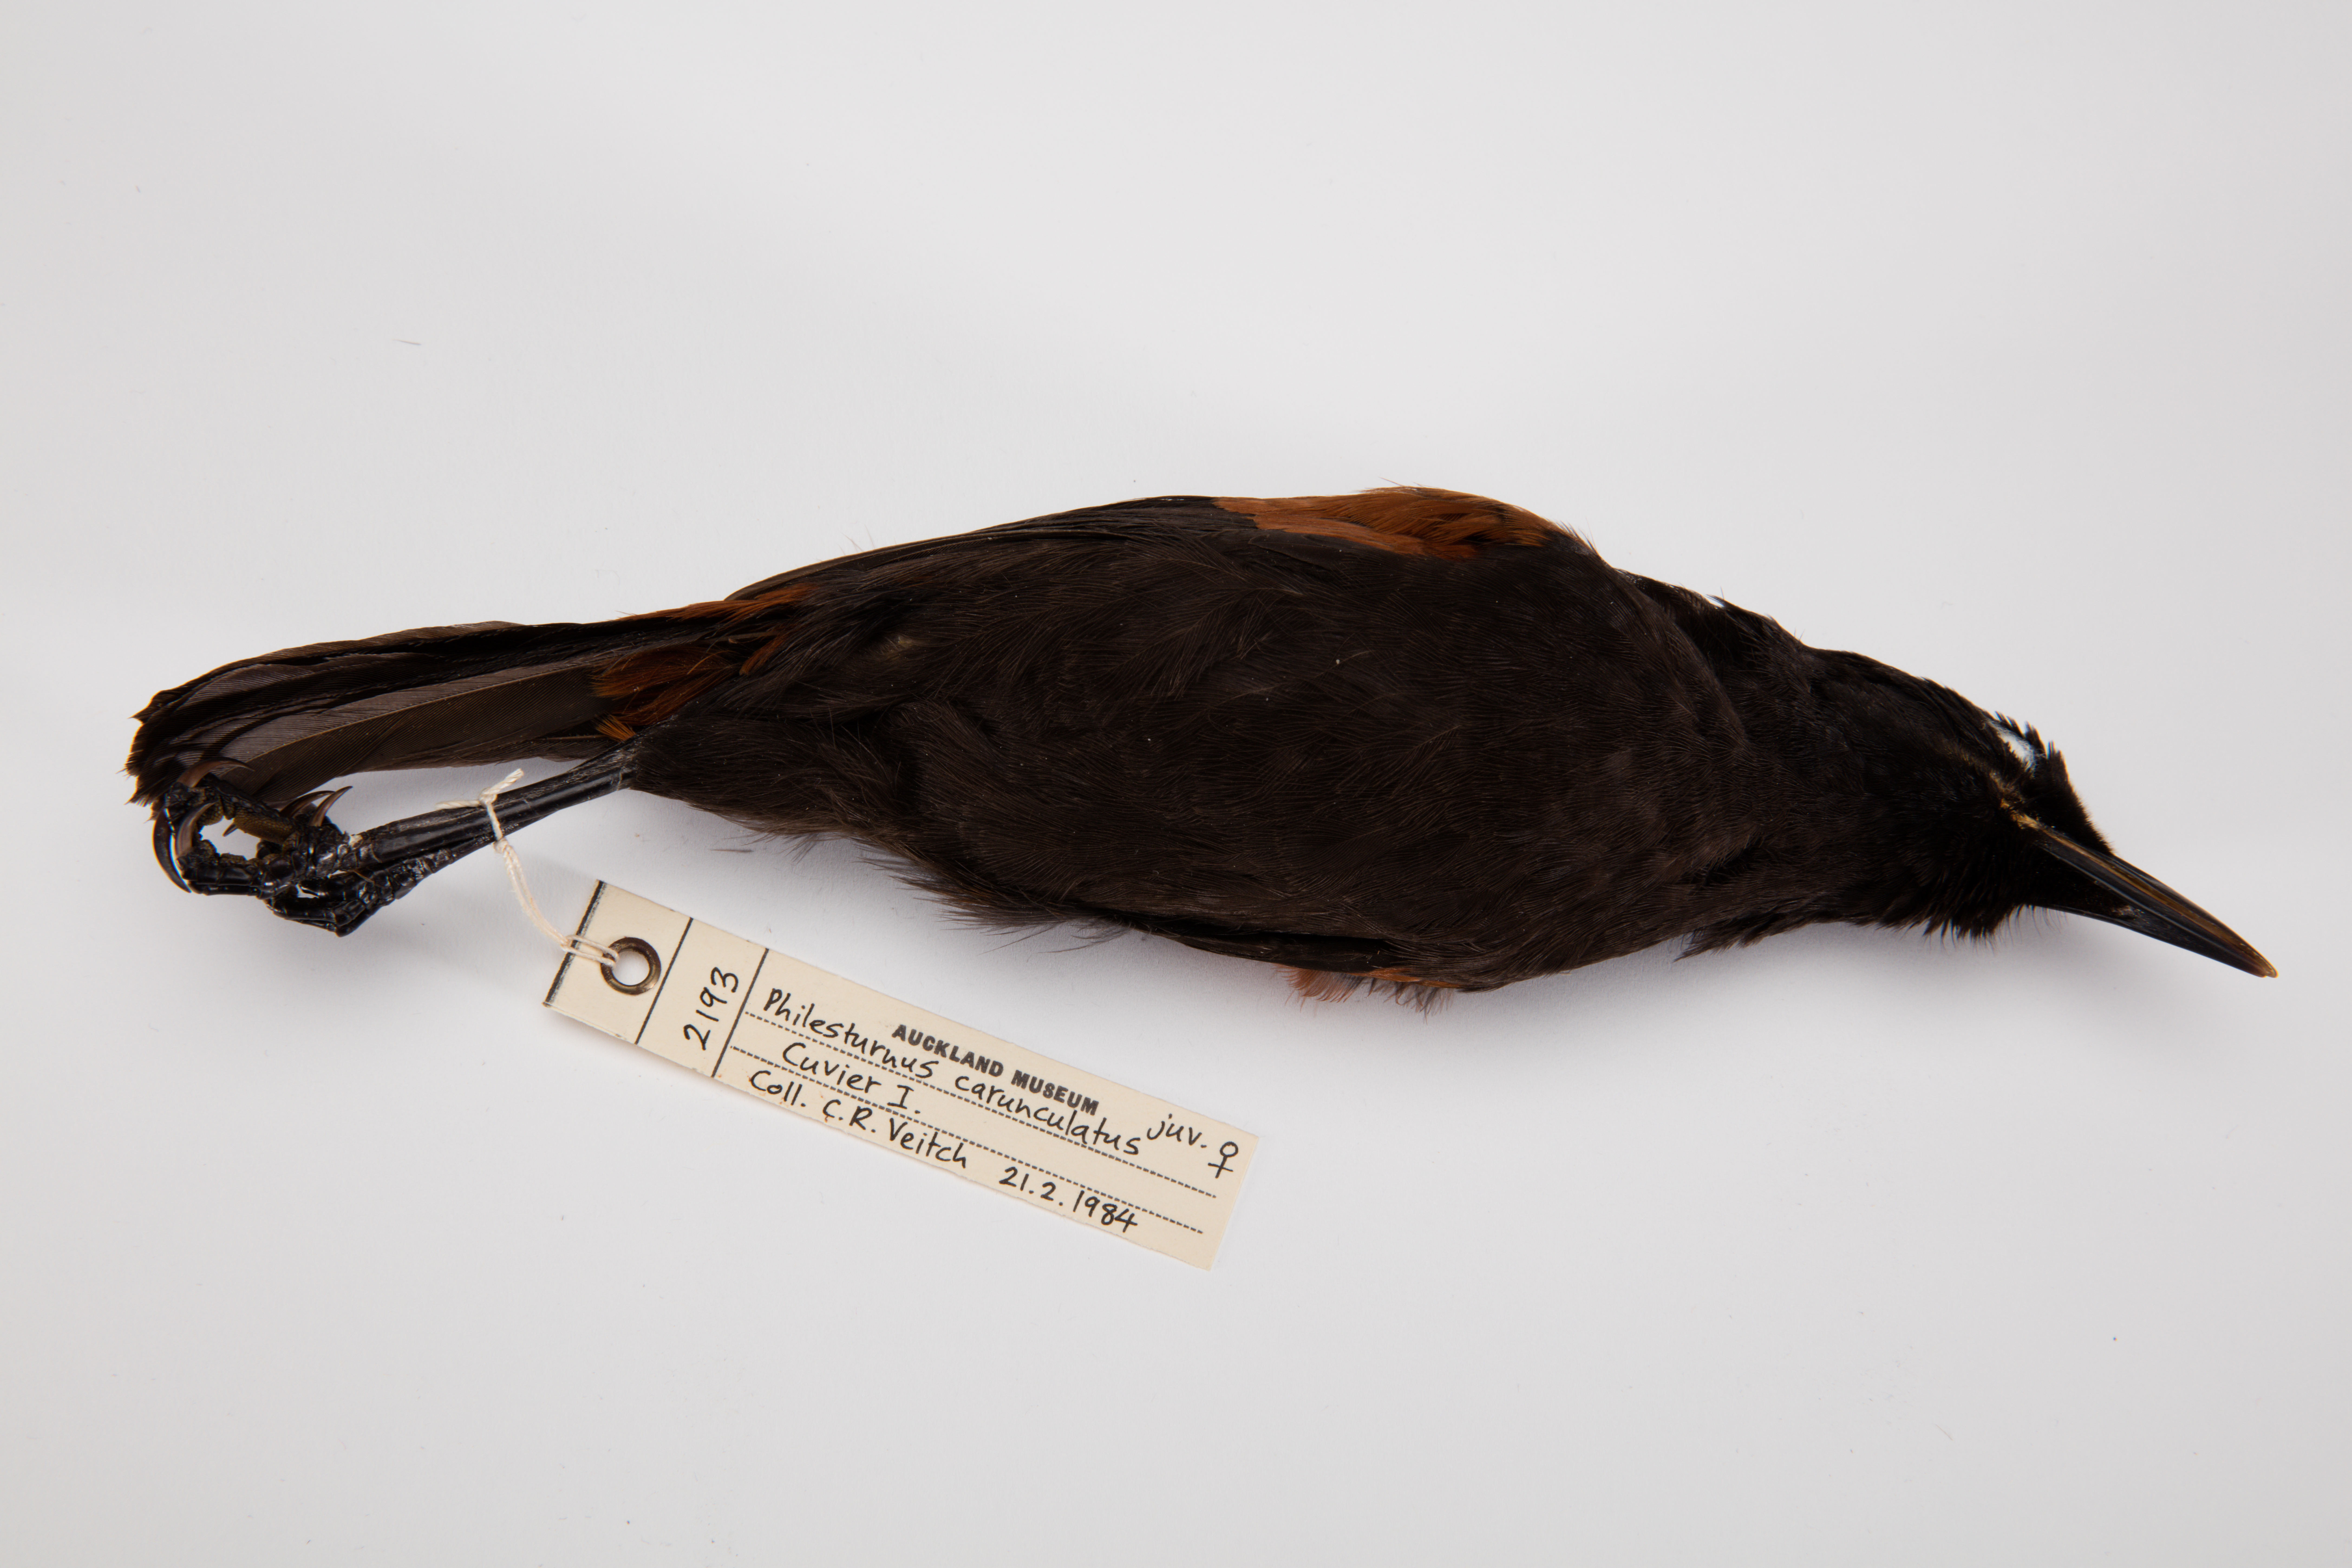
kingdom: Animalia
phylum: Chordata
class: Aves
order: Passeriformes
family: Callaeatidae
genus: Philesturnus
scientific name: Philesturnus carunculatus
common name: South island saddleback
